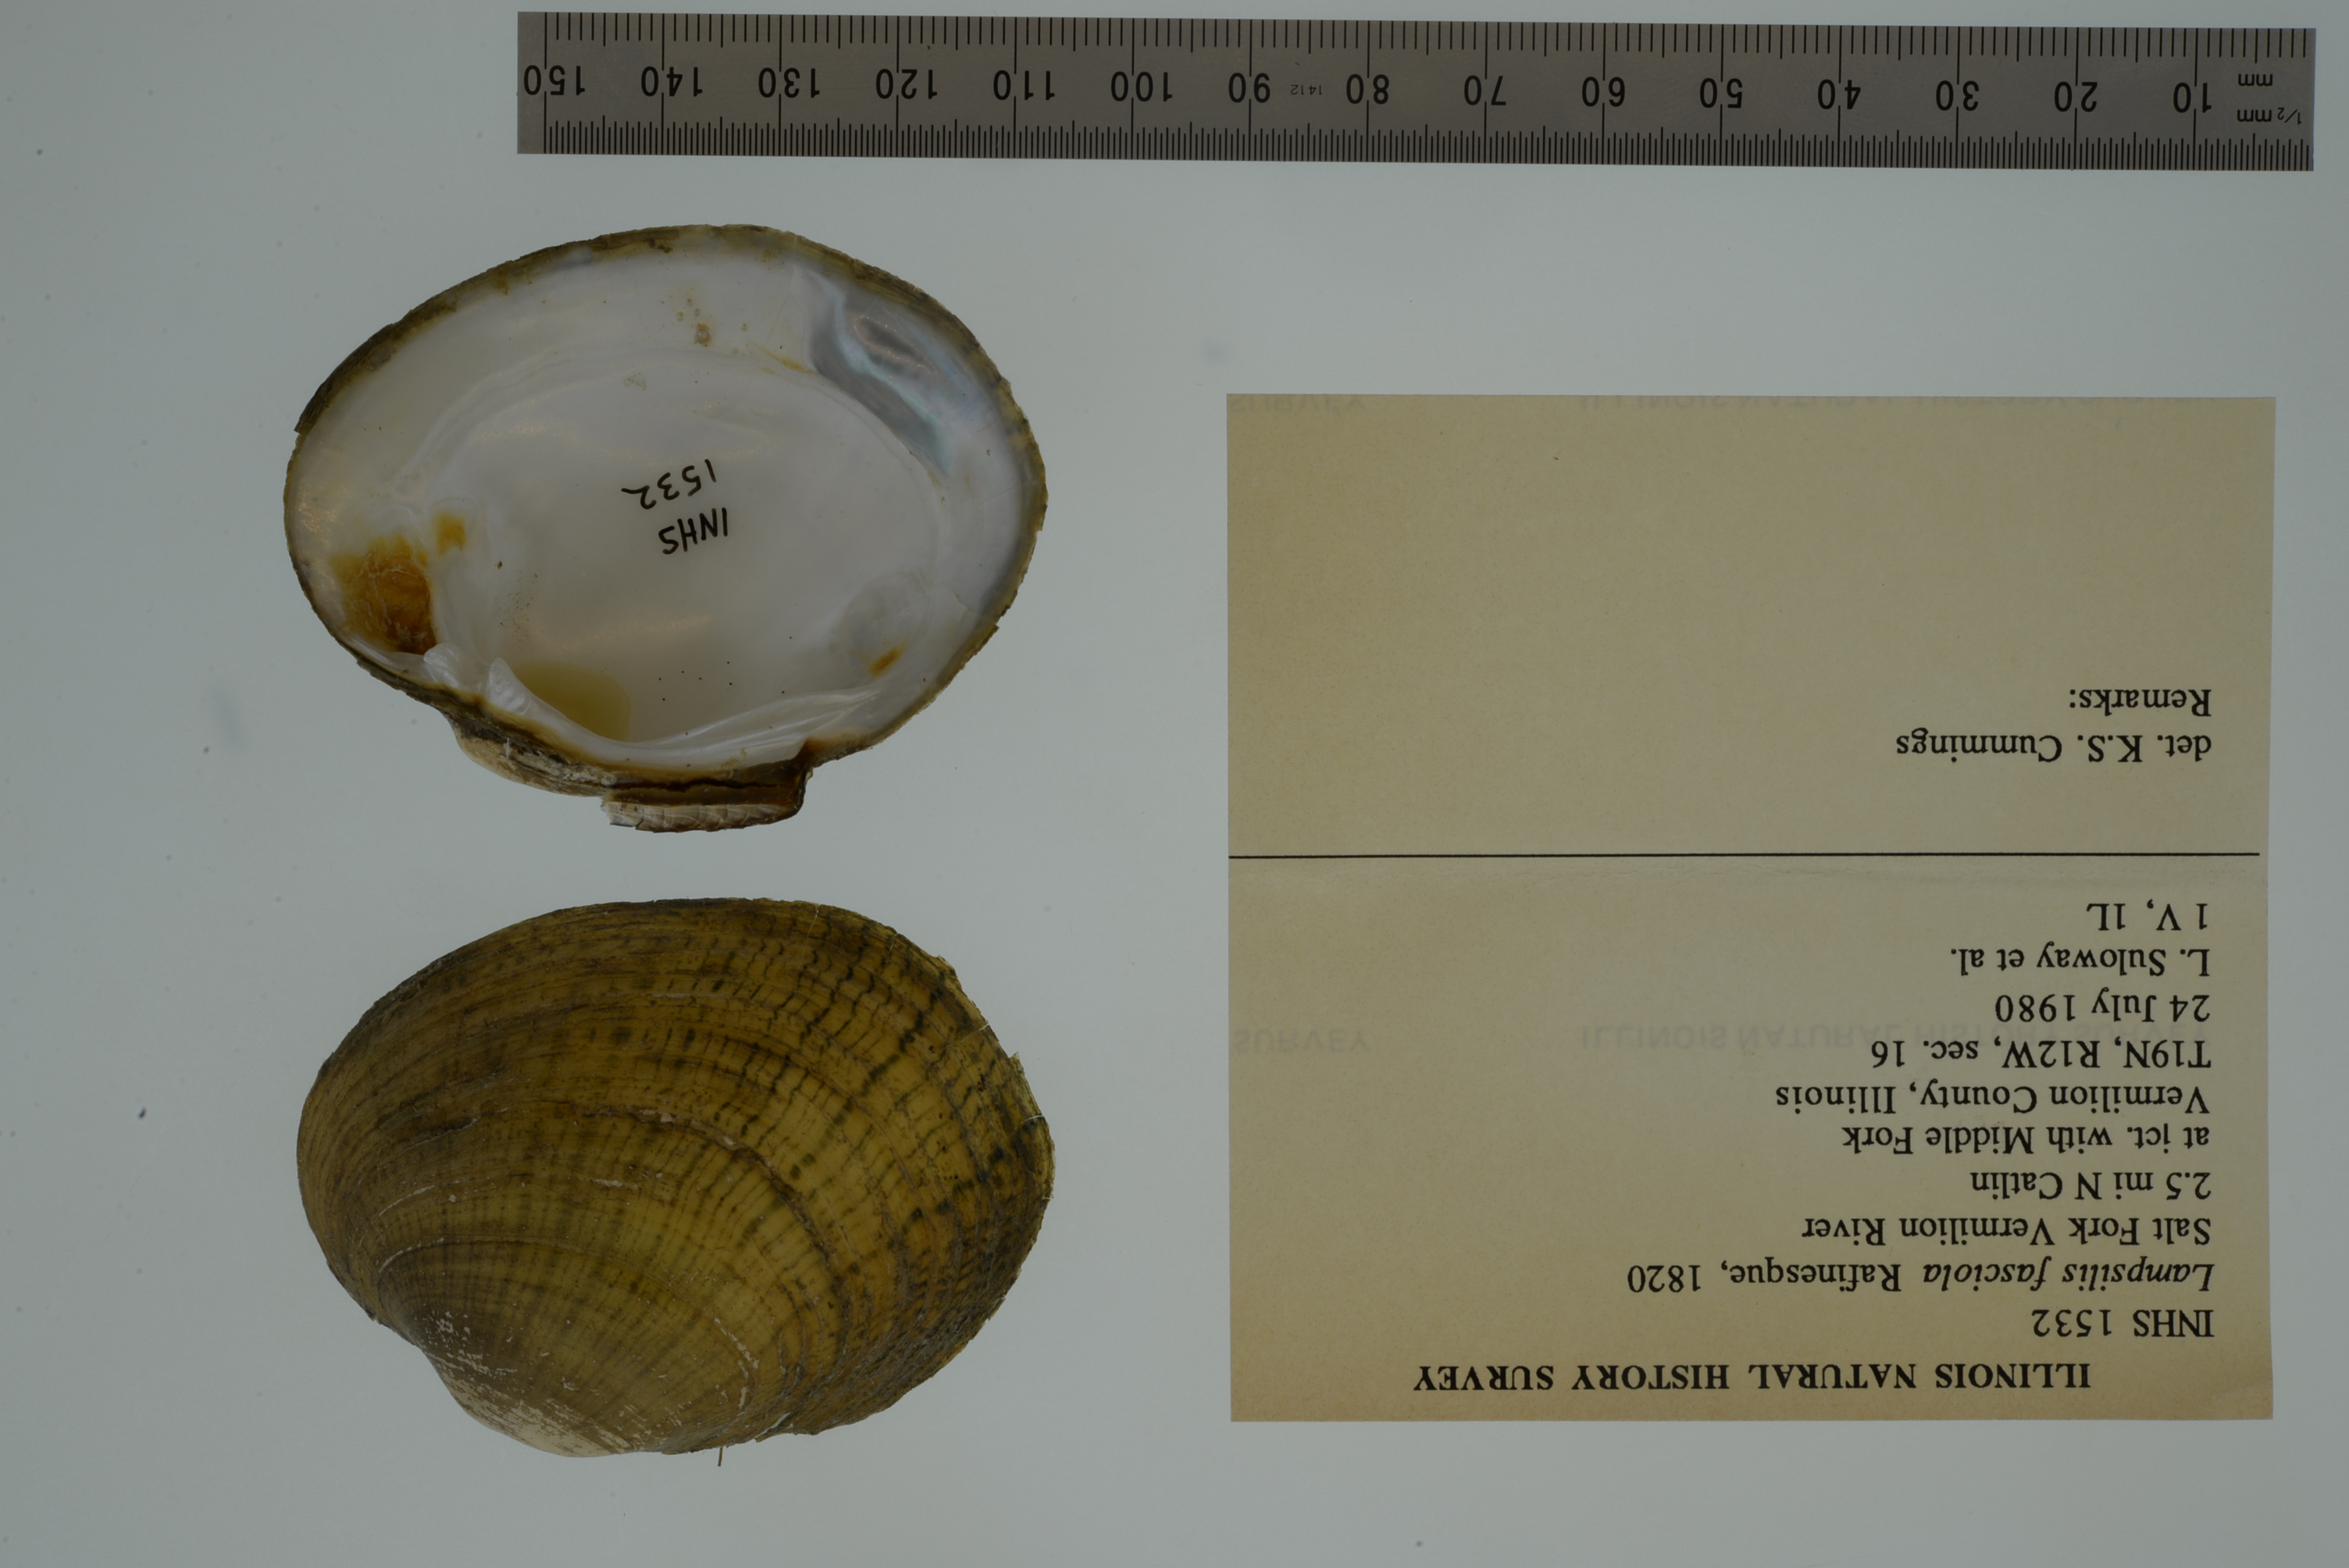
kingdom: Animalia
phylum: Mollusca
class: Bivalvia
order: Unionida
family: Unionidae
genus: Lampsilis
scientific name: Lampsilis fasciola
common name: Wavyrayed lampmussel
